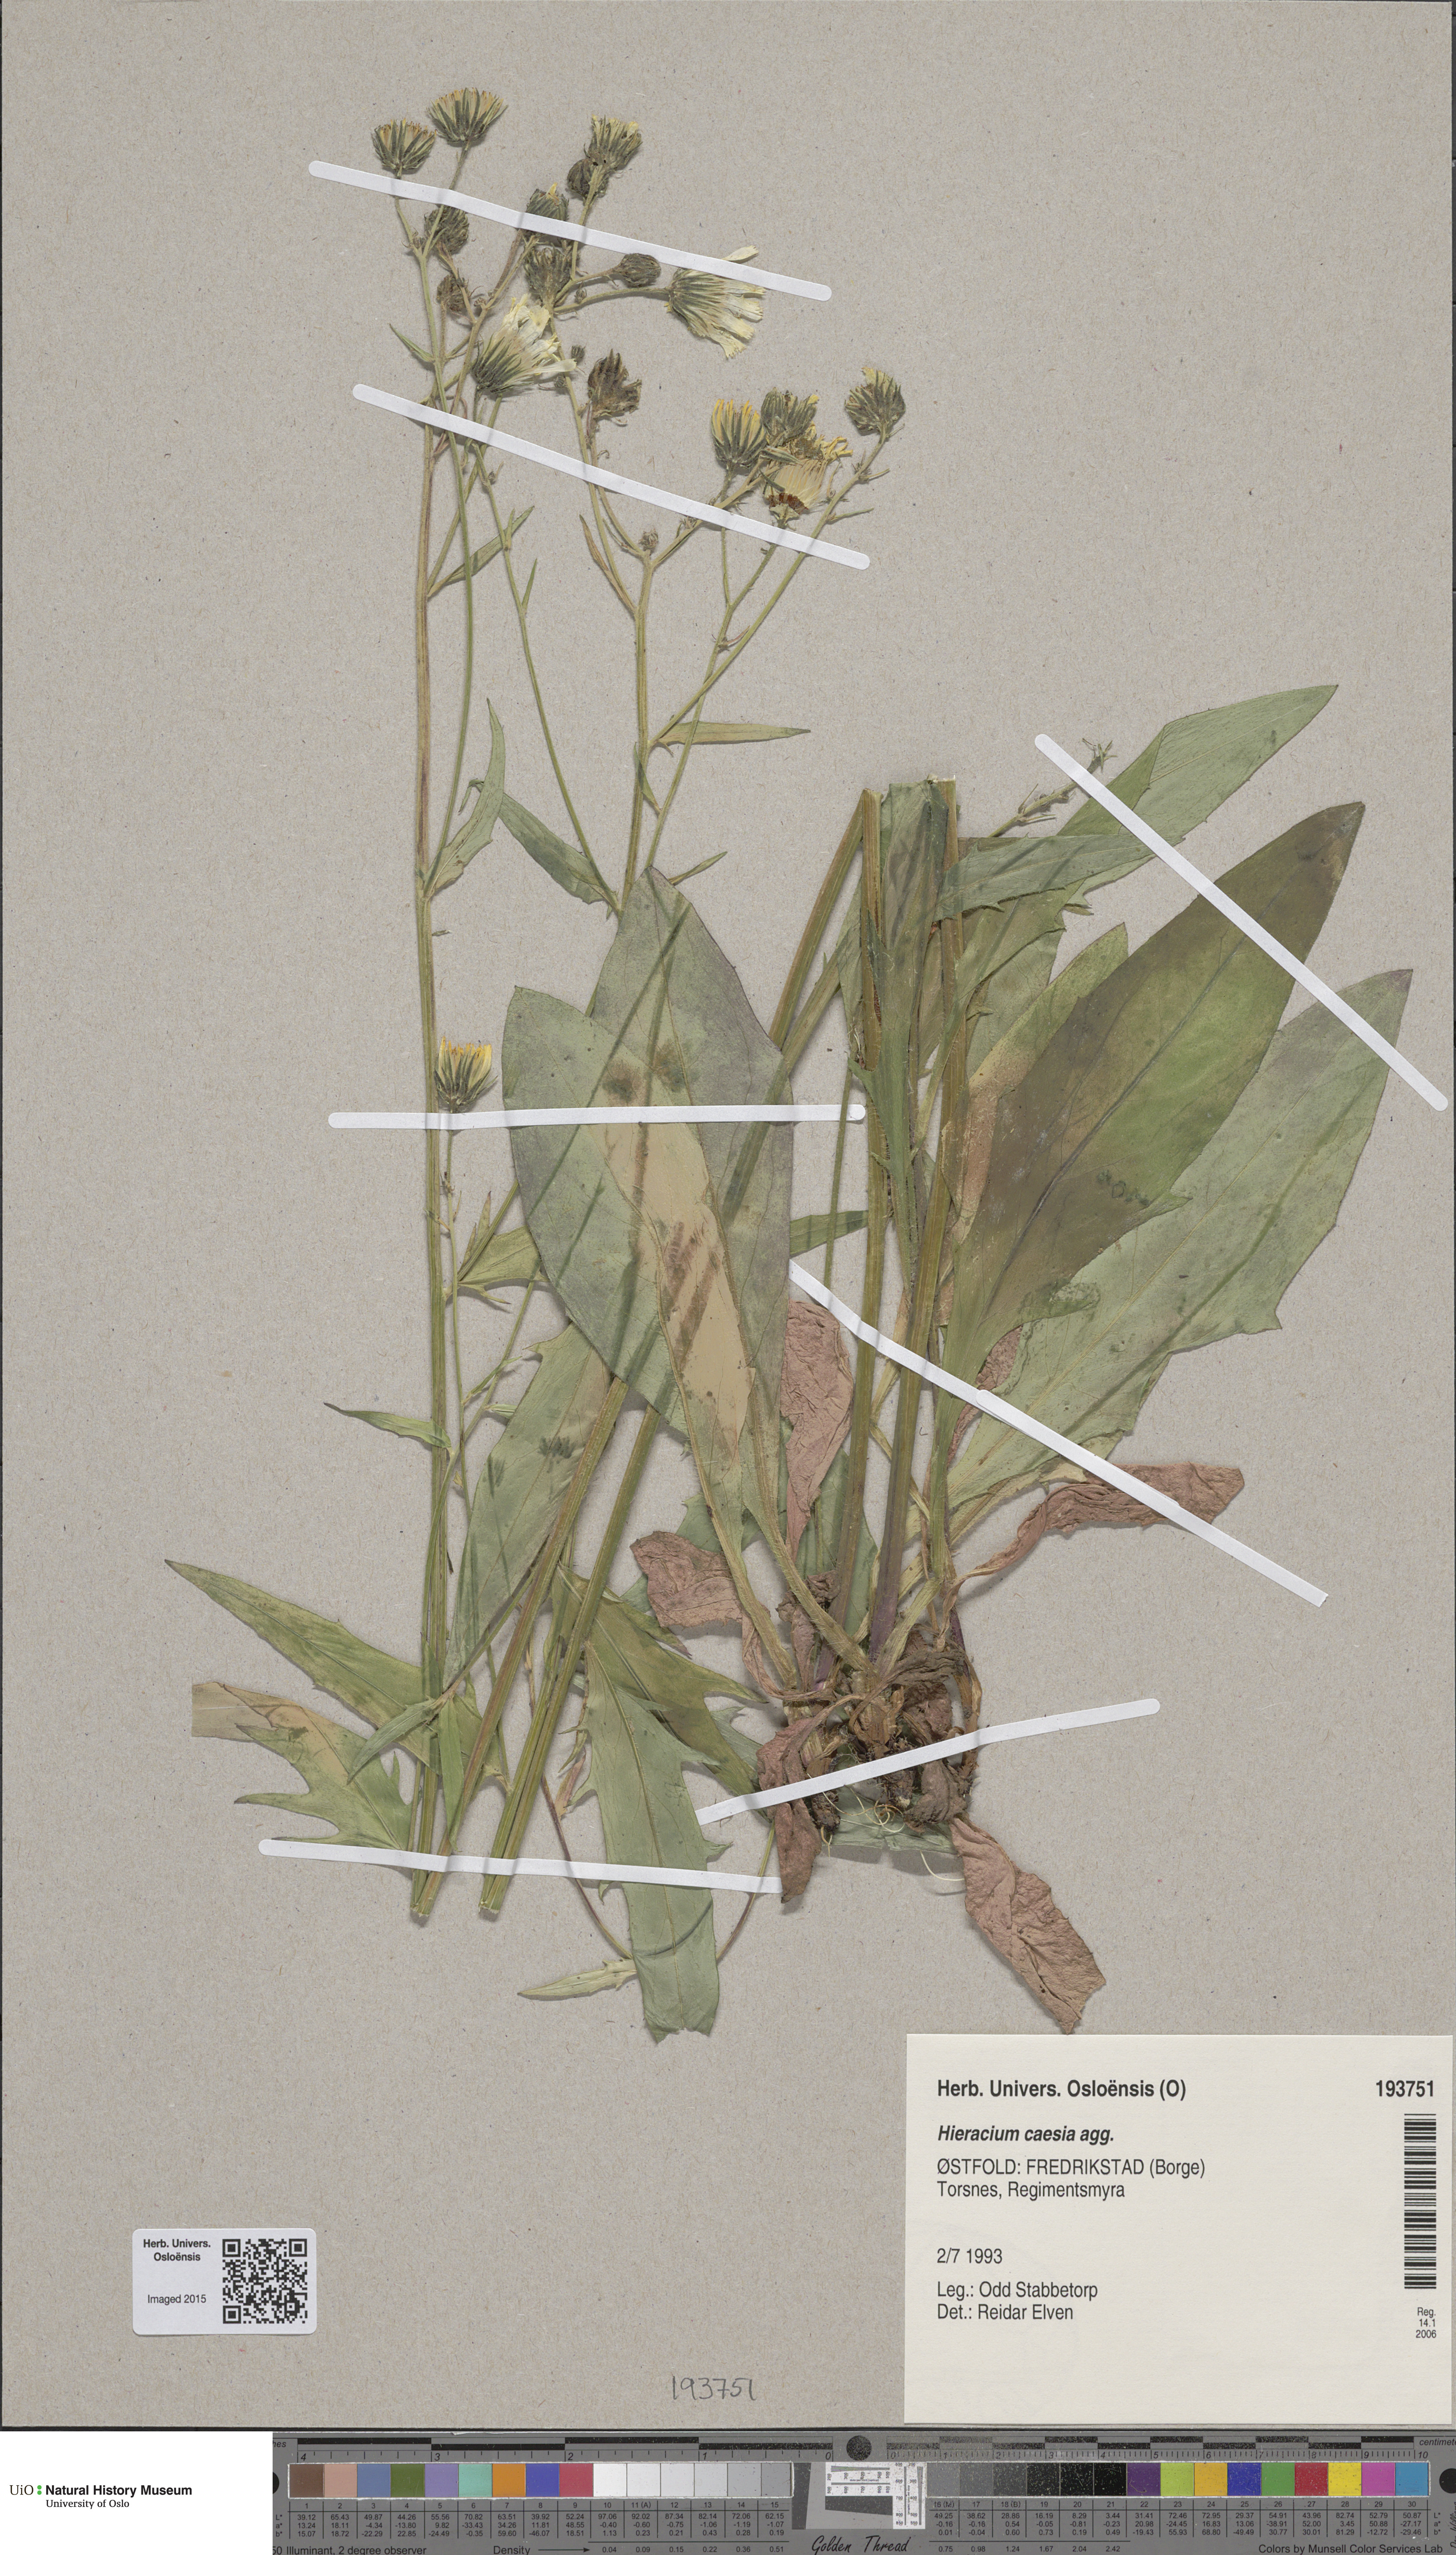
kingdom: Plantae
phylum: Tracheophyta
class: Magnoliopsida
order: Asterales
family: Asteraceae
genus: Hieracium
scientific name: Hieracium caesium
